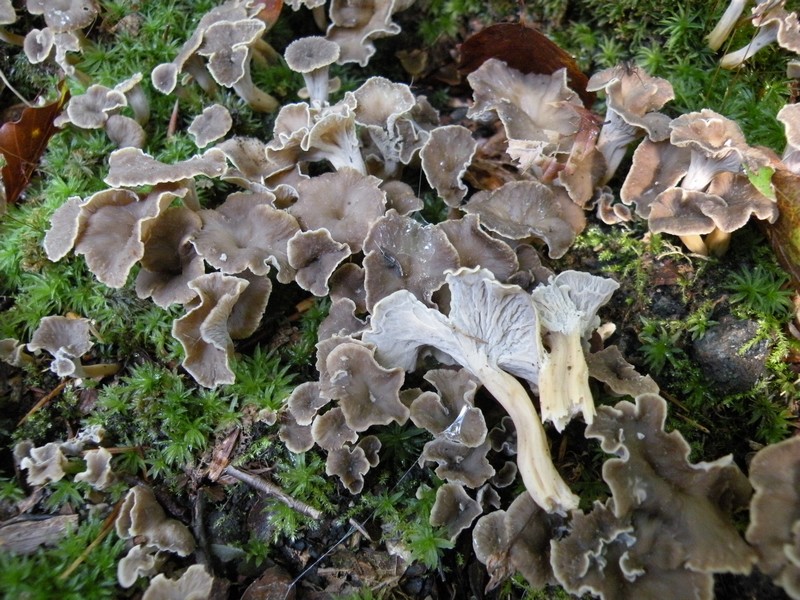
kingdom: Fungi
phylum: Basidiomycota
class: Agaricomycetes
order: Cantharellales
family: Hydnaceae
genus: Craterellus
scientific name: Craterellus undulatus
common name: liden kantarel
